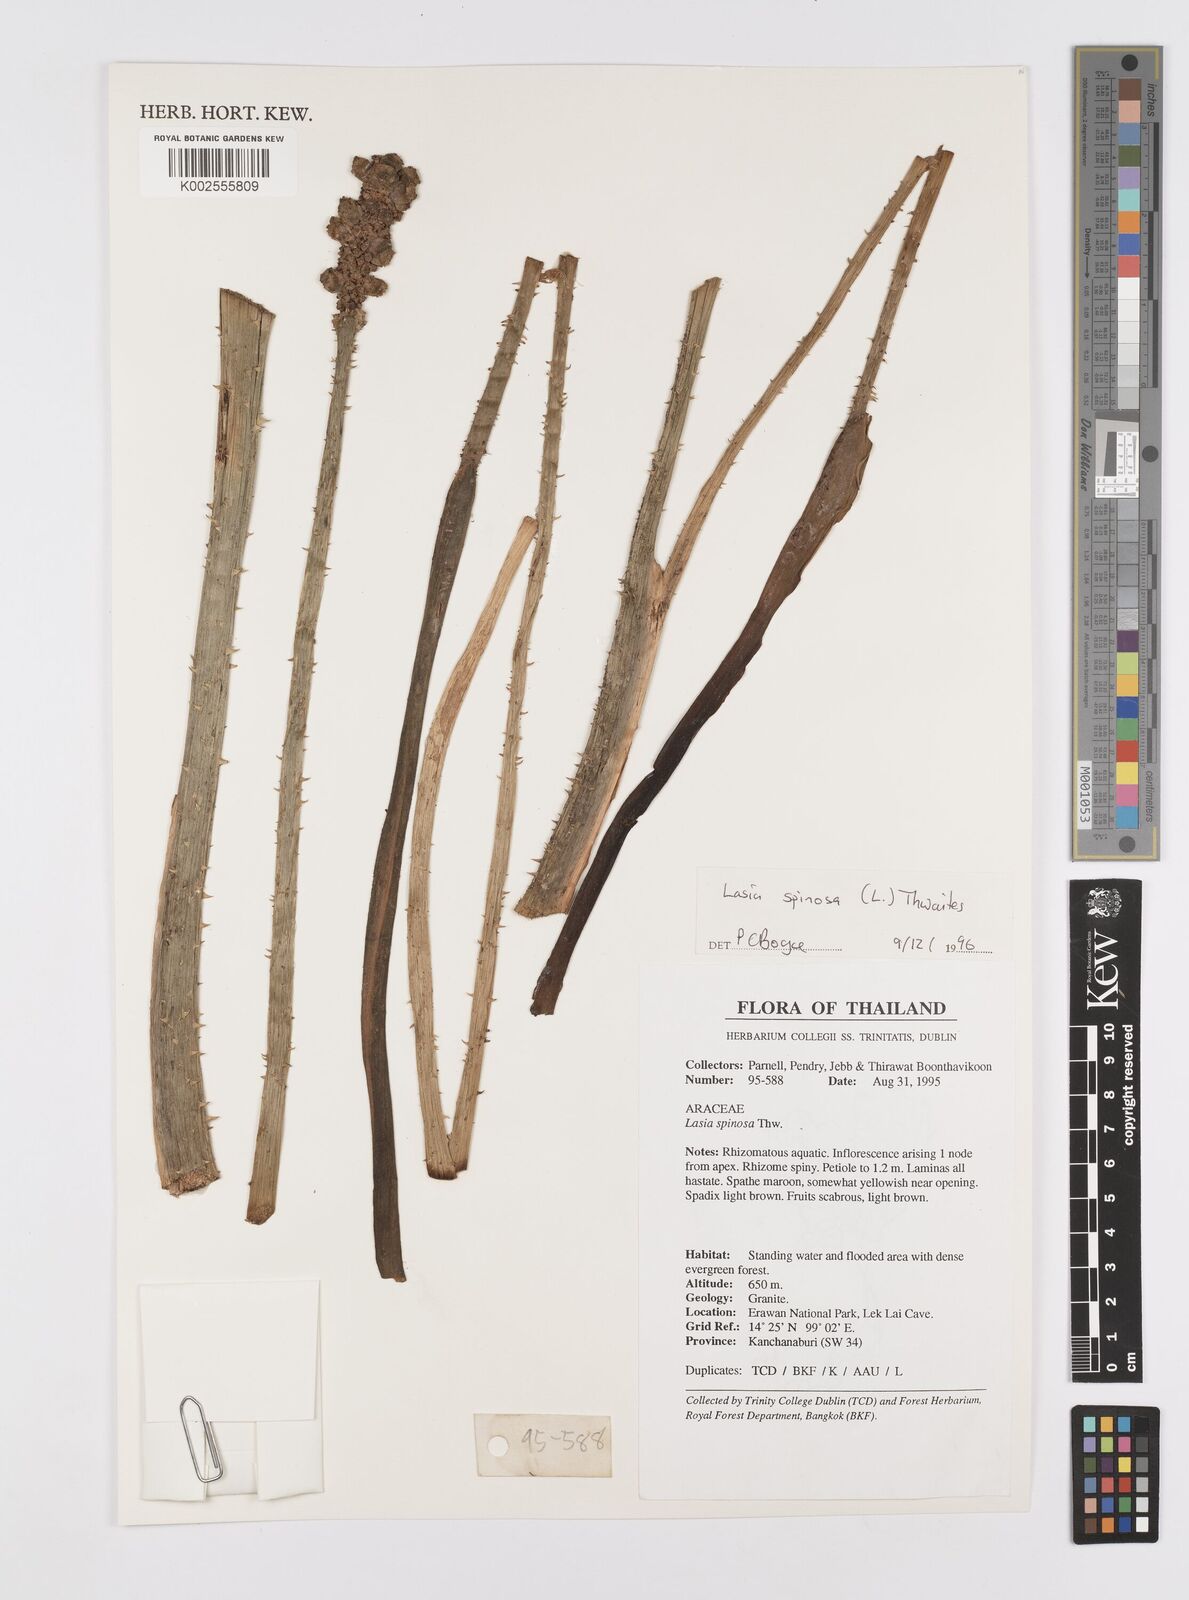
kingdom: Plantae
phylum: Tracheophyta
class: Liliopsida
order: Alismatales
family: Araceae
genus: Lasia
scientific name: Lasia spinosa
